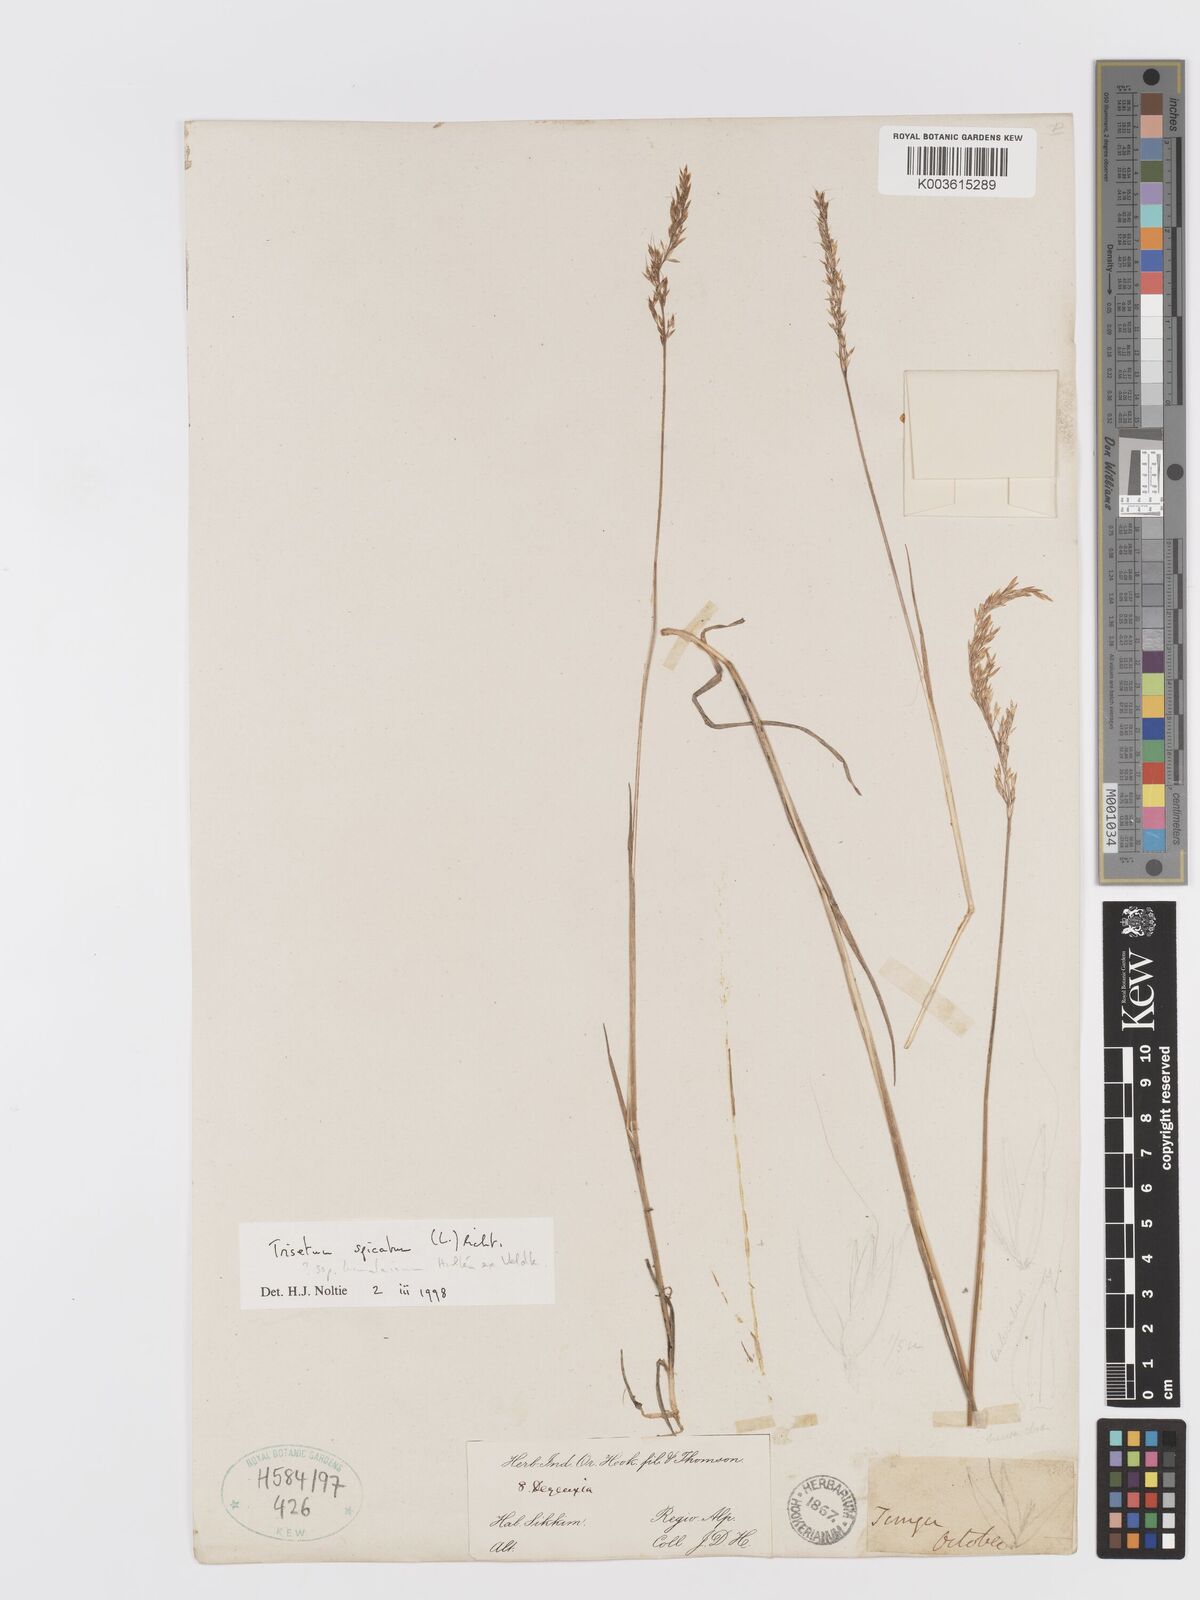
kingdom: Plantae
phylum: Tracheophyta
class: Liliopsida
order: Poales
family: Poaceae
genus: Koeleria
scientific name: Koeleria spicata
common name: Mountain trisetum
